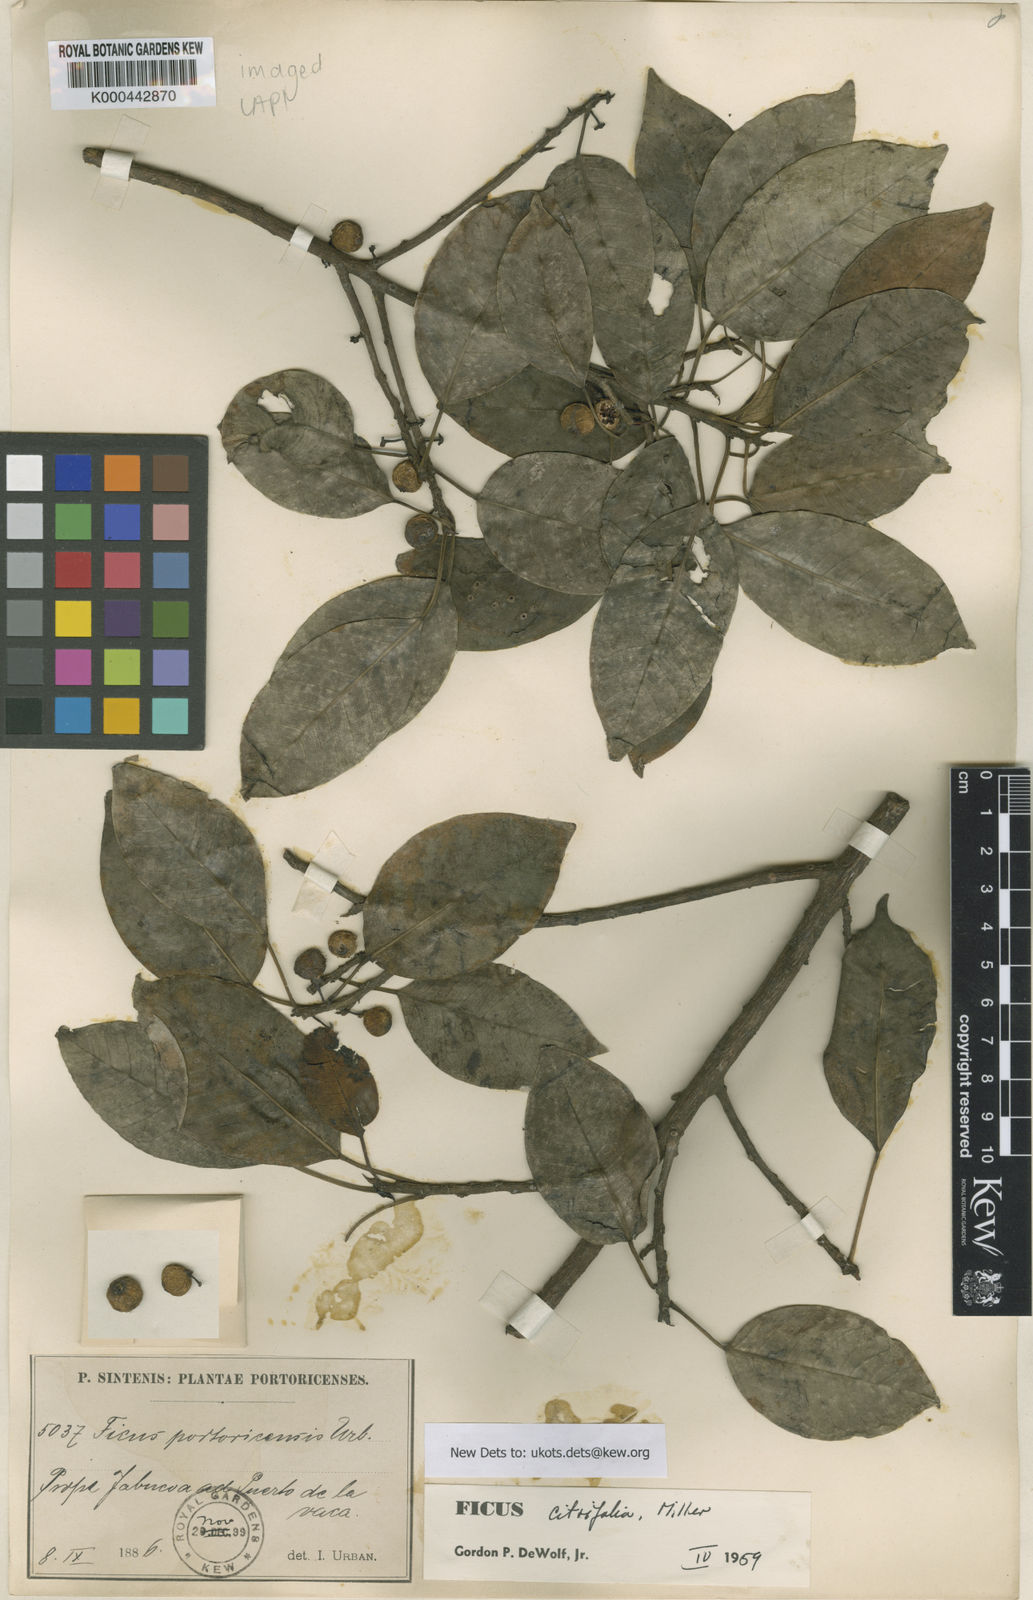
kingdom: Plantae
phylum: Tracheophyta
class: Magnoliopsida
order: Rosales
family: Moraceae
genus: Ficus
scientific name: Ficus citrifolia
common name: Strangler fig
